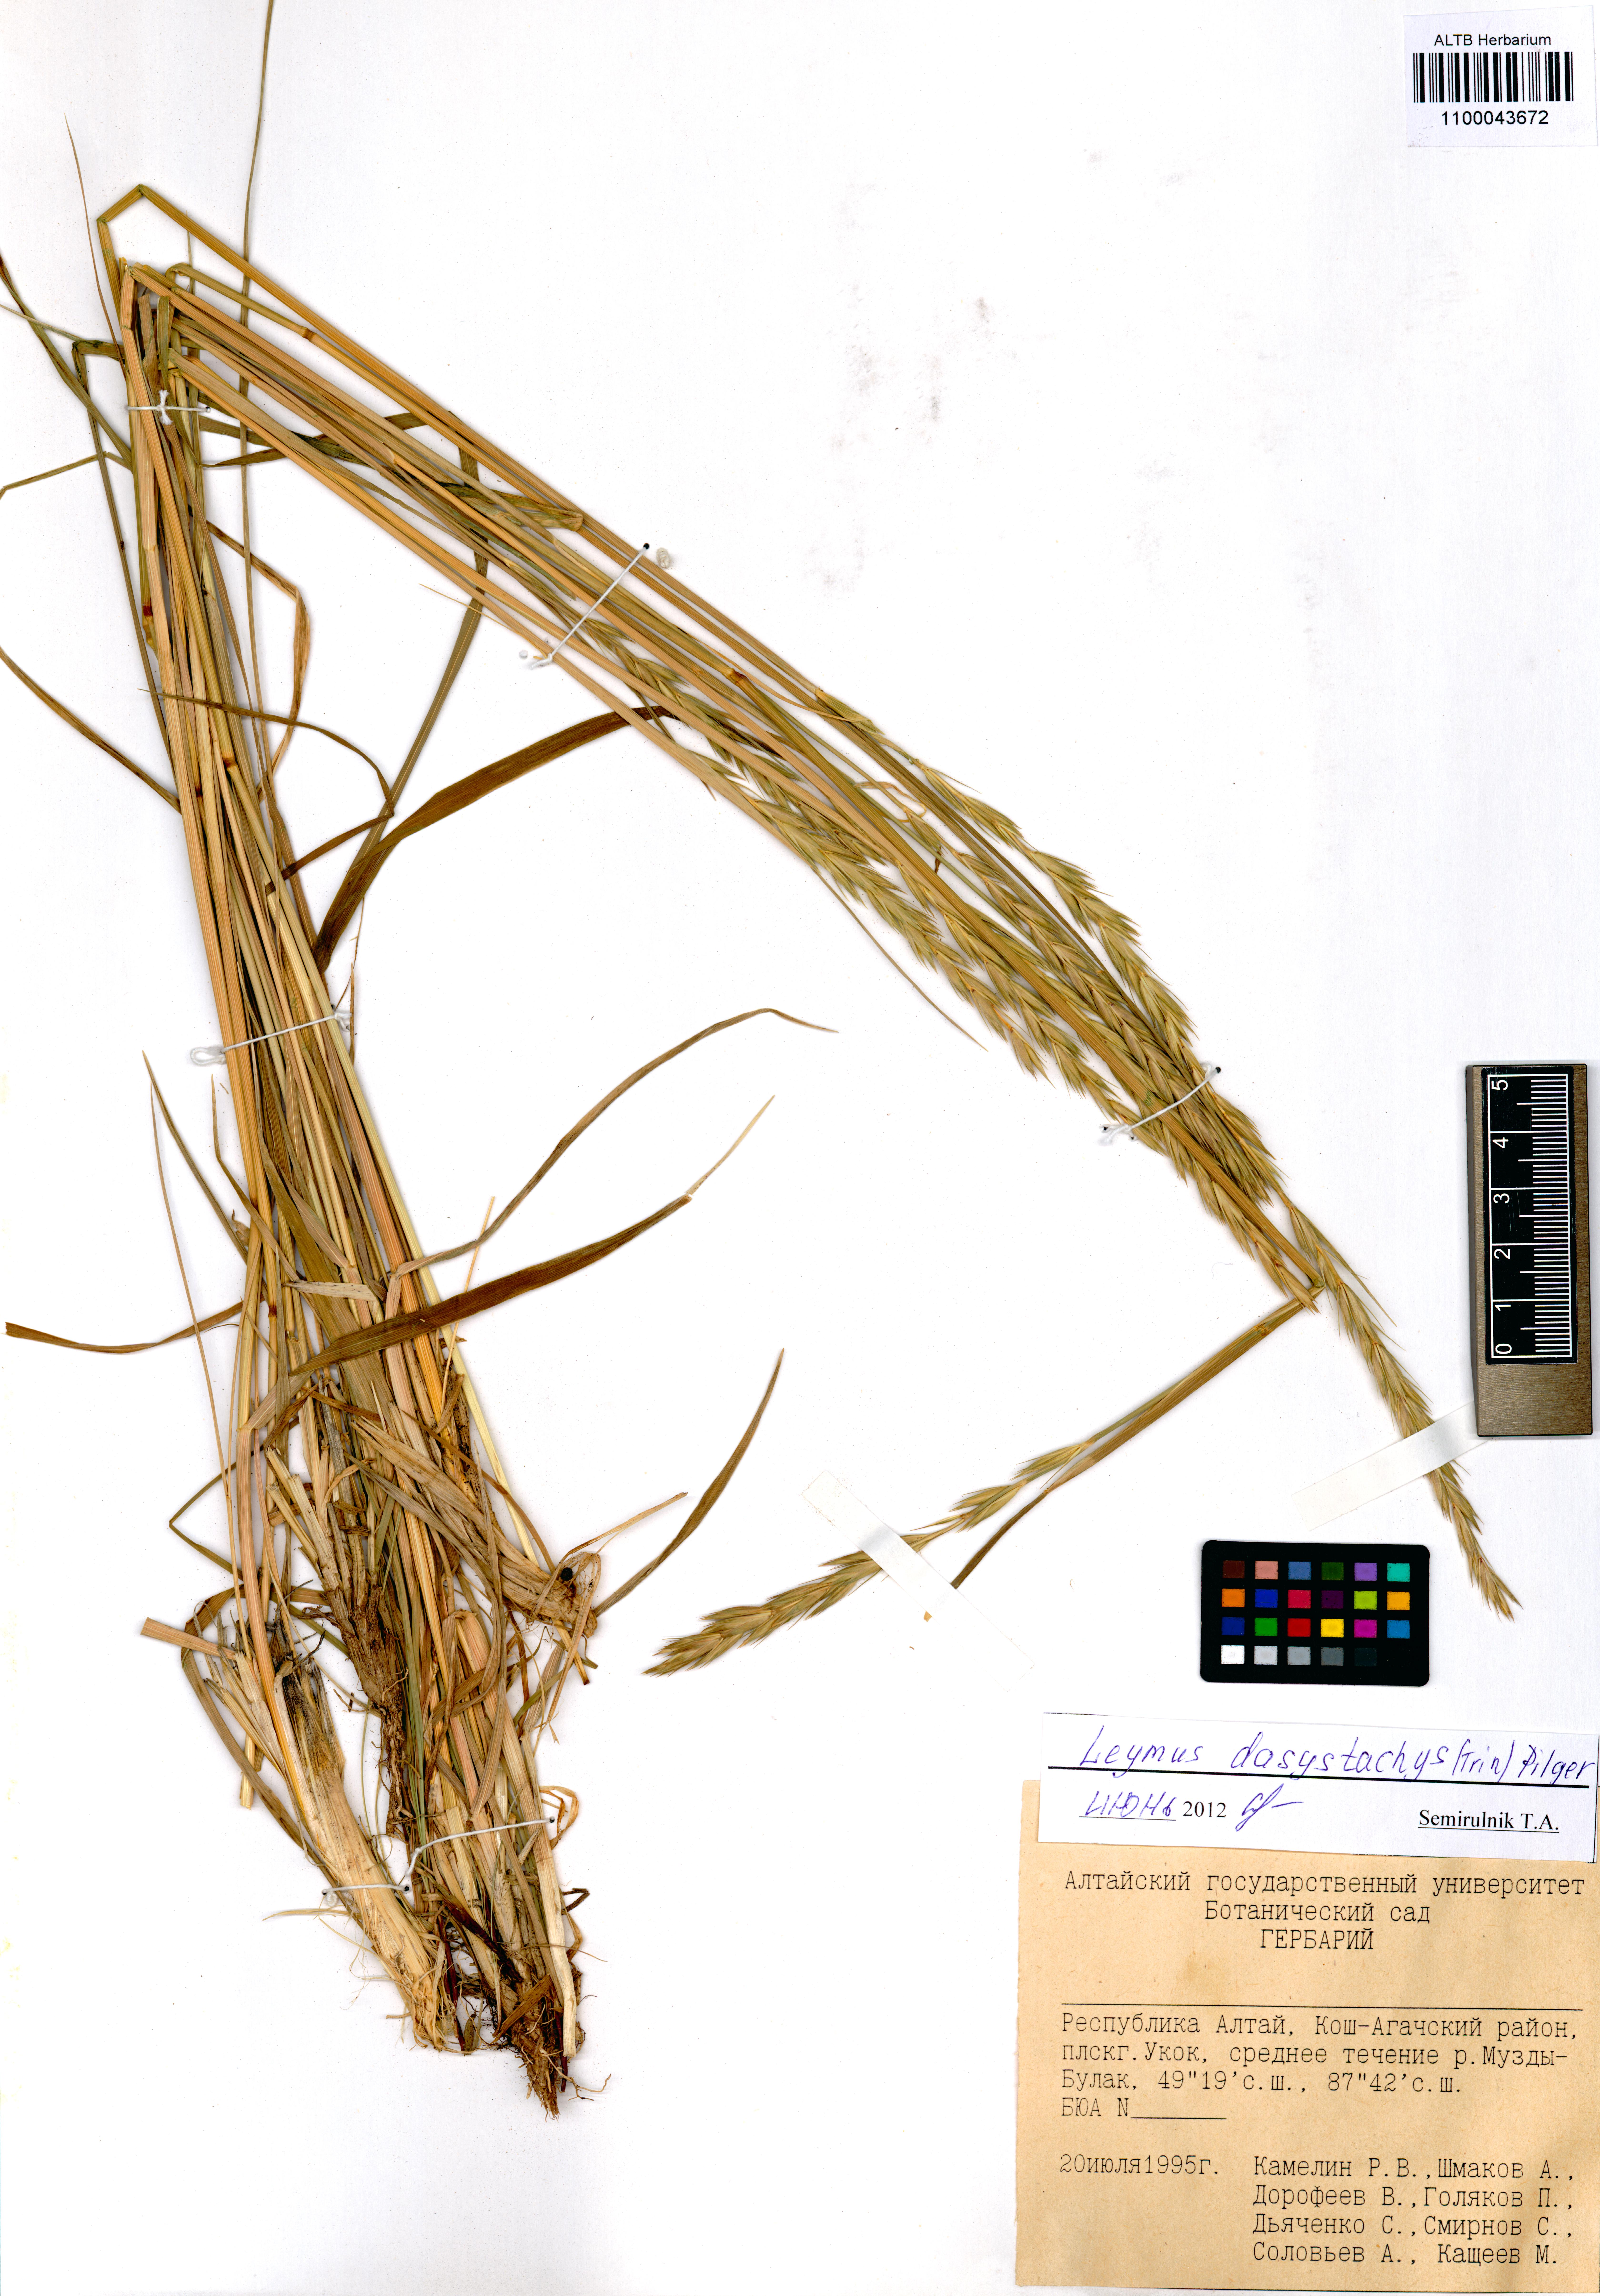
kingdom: Plantae
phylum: Tracheophyta
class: Liliopsida
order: Poales
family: Poaceae
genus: Leymus
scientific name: Leymus secalinus
